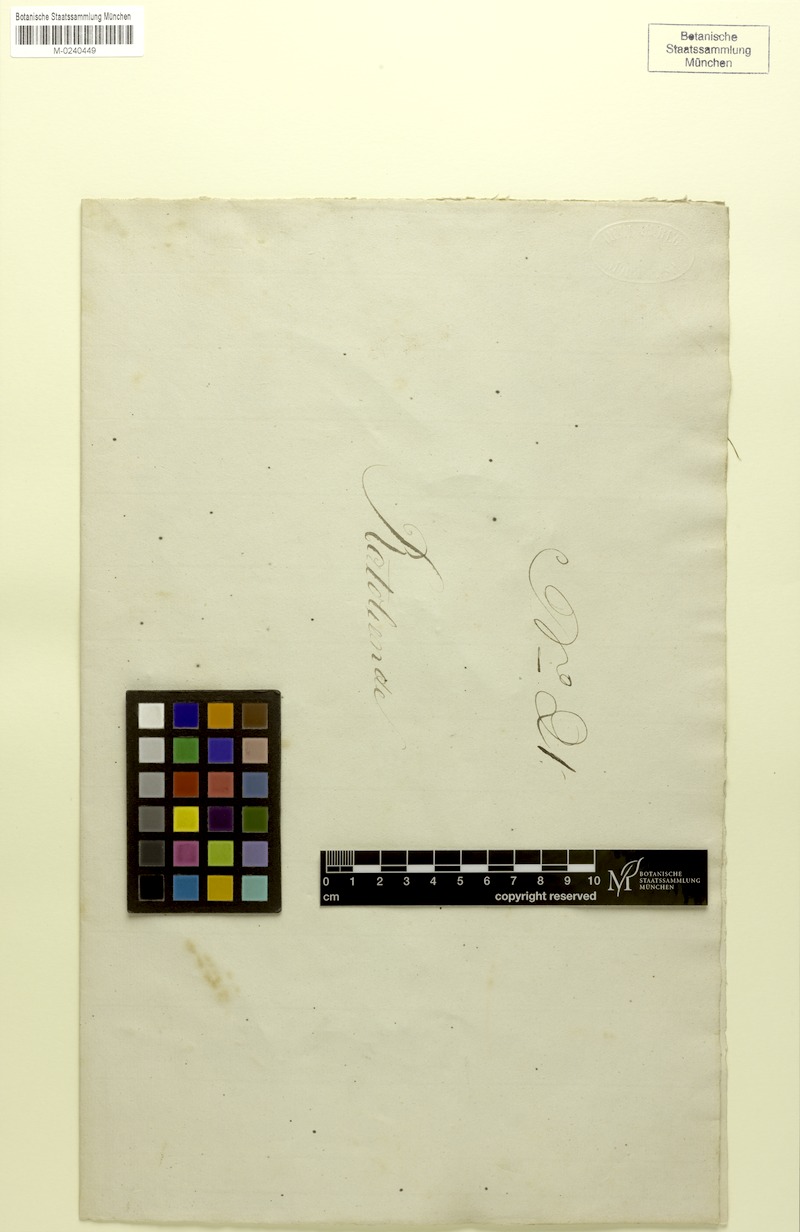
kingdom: Plantae
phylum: Tracheophyta
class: Magnoliopsida
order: Fabales
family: Fabaceae
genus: Abrus
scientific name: Abrus precatorius
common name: Rosarypea
